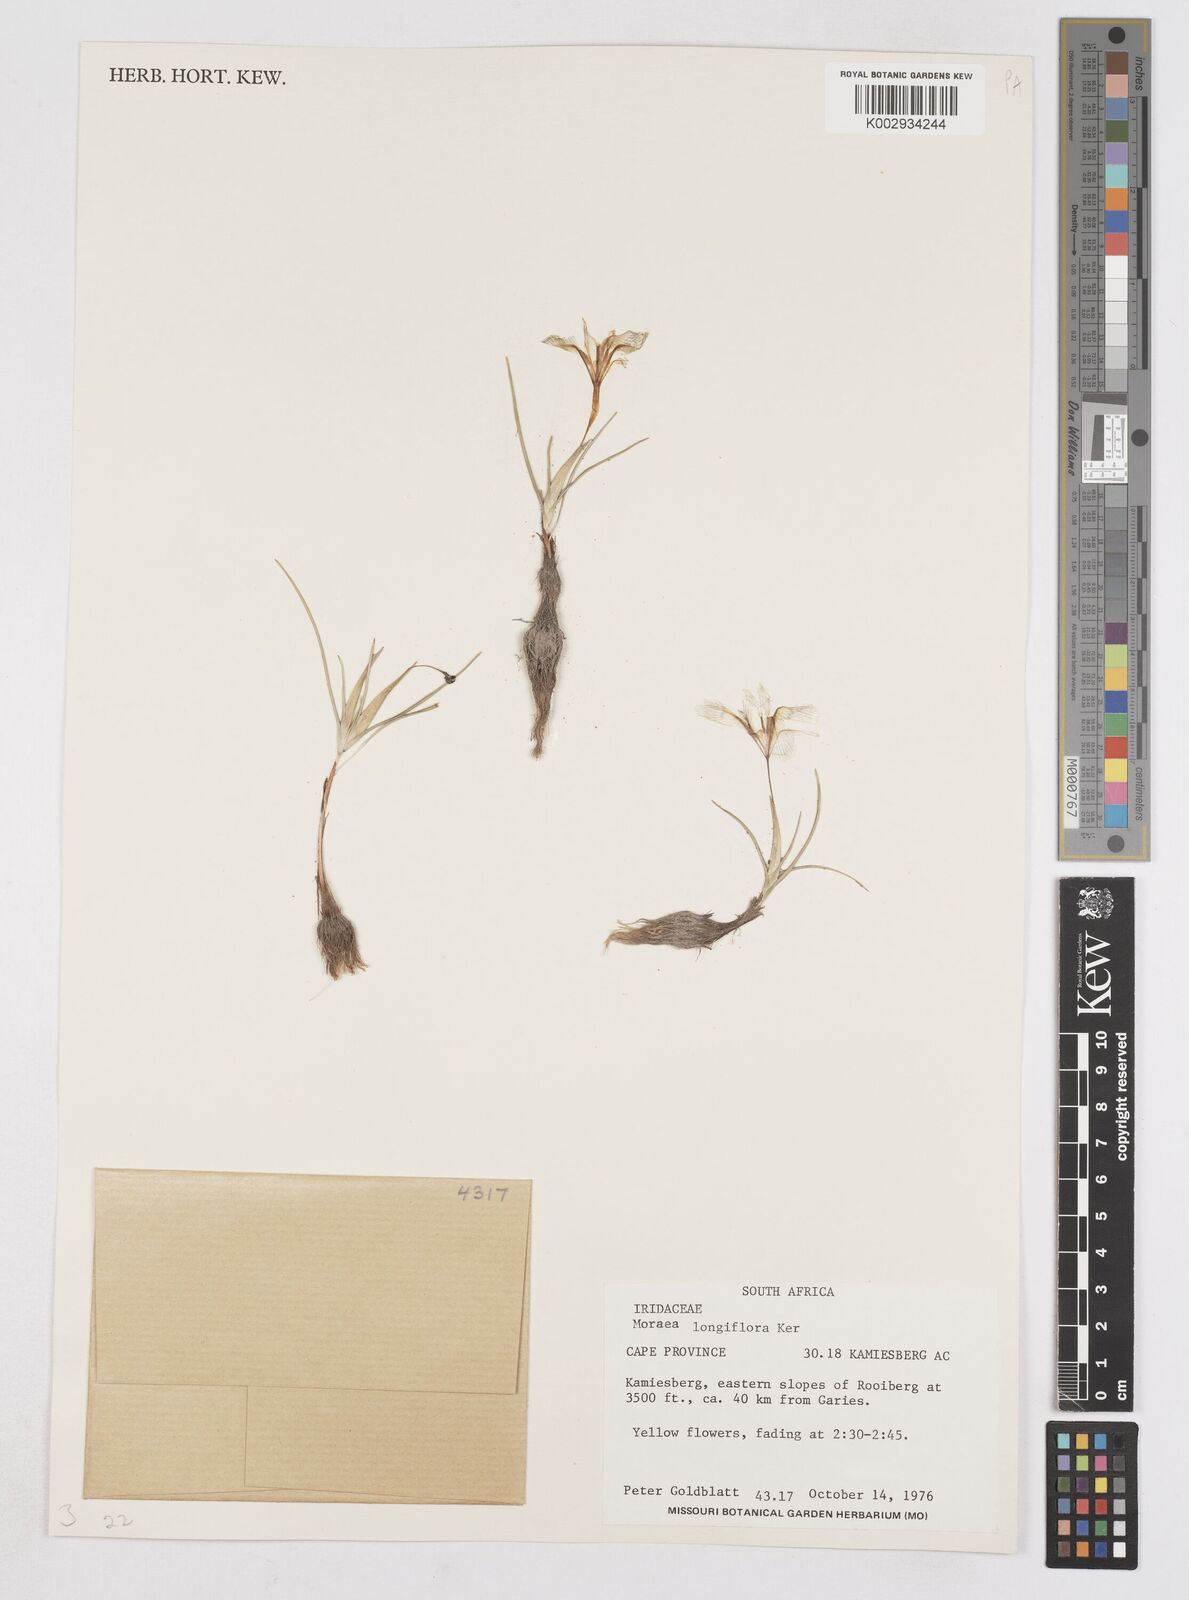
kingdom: Plantae
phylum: Tracheophyta
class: Liliopsida
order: Asparagales
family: Iridaceae
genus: Moraea
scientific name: Moraea longiflora
